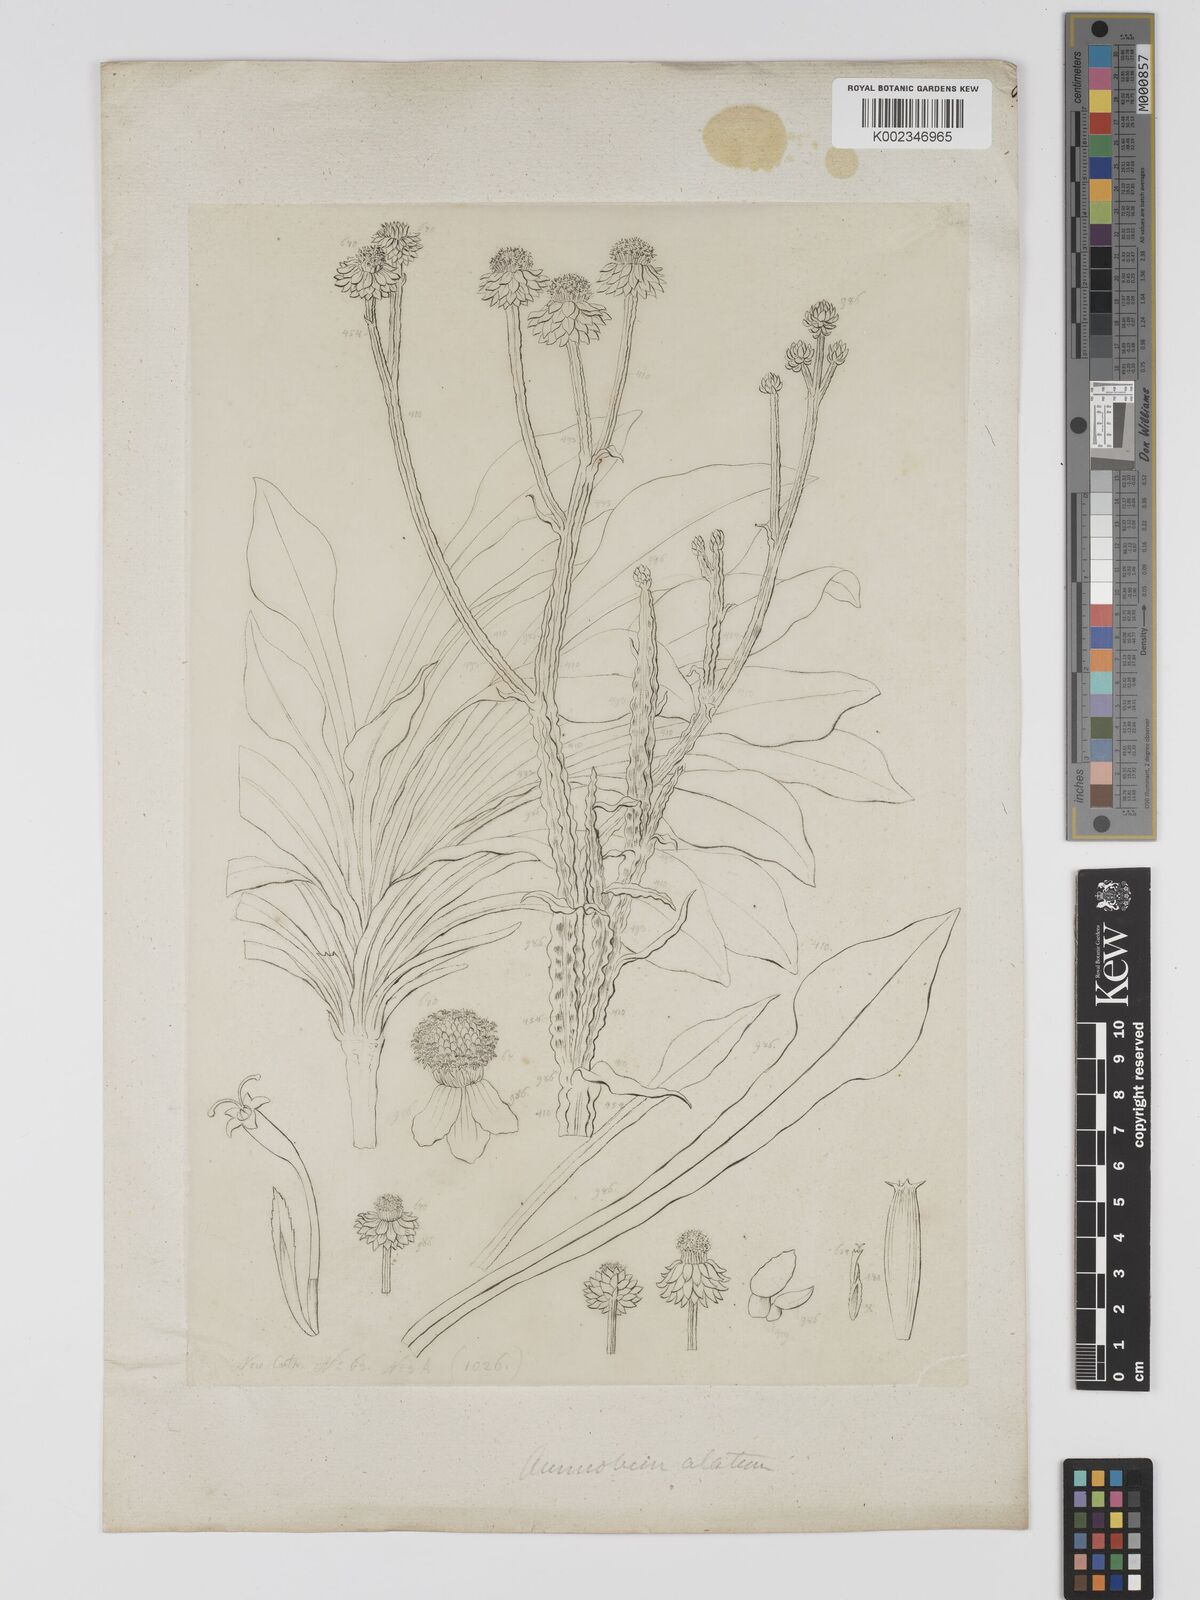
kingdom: Plantae
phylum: Tracheophyta
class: Magnoliopsida
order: Asterales
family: Asteraceae
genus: Ammobium
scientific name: Ammobium alatum
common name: Winged everlasting
